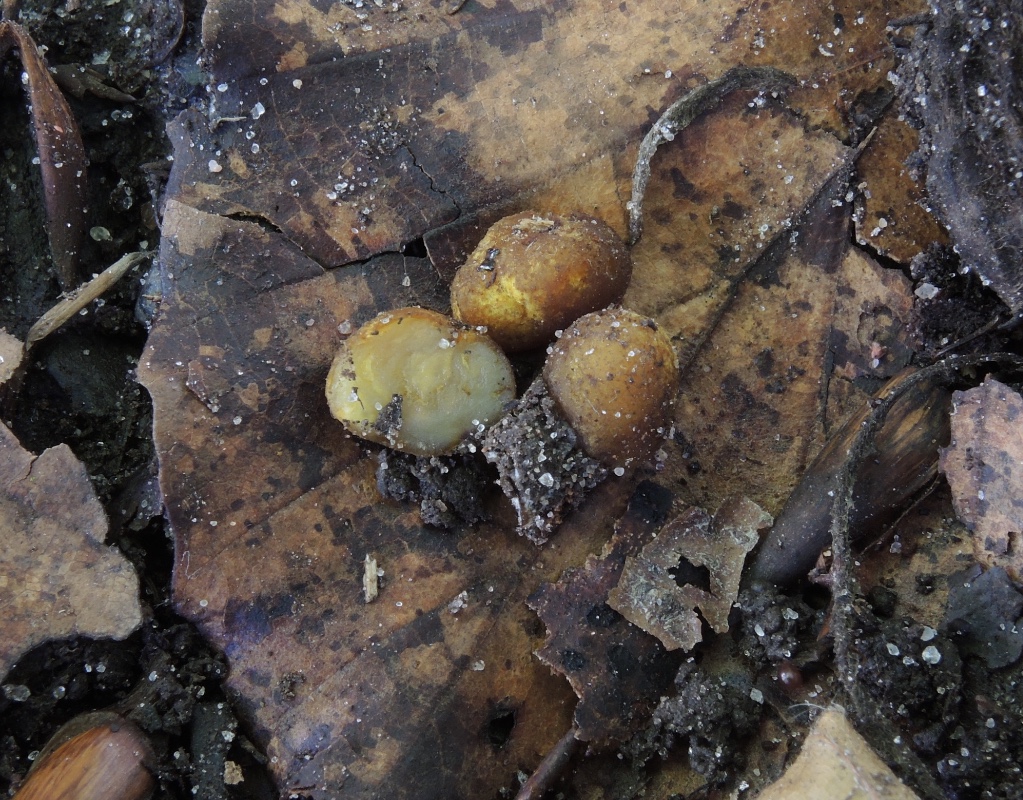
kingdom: Fungi
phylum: Ascomycota
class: Pezizomycetes
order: Pezizales
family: Pezizaceae
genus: Pachyphlodes
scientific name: Pachyphlodes
